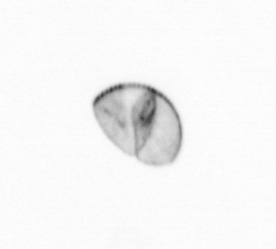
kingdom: Chromista
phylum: Ochrophyta
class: Bacillariophyceae
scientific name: Bacillariophyceae
